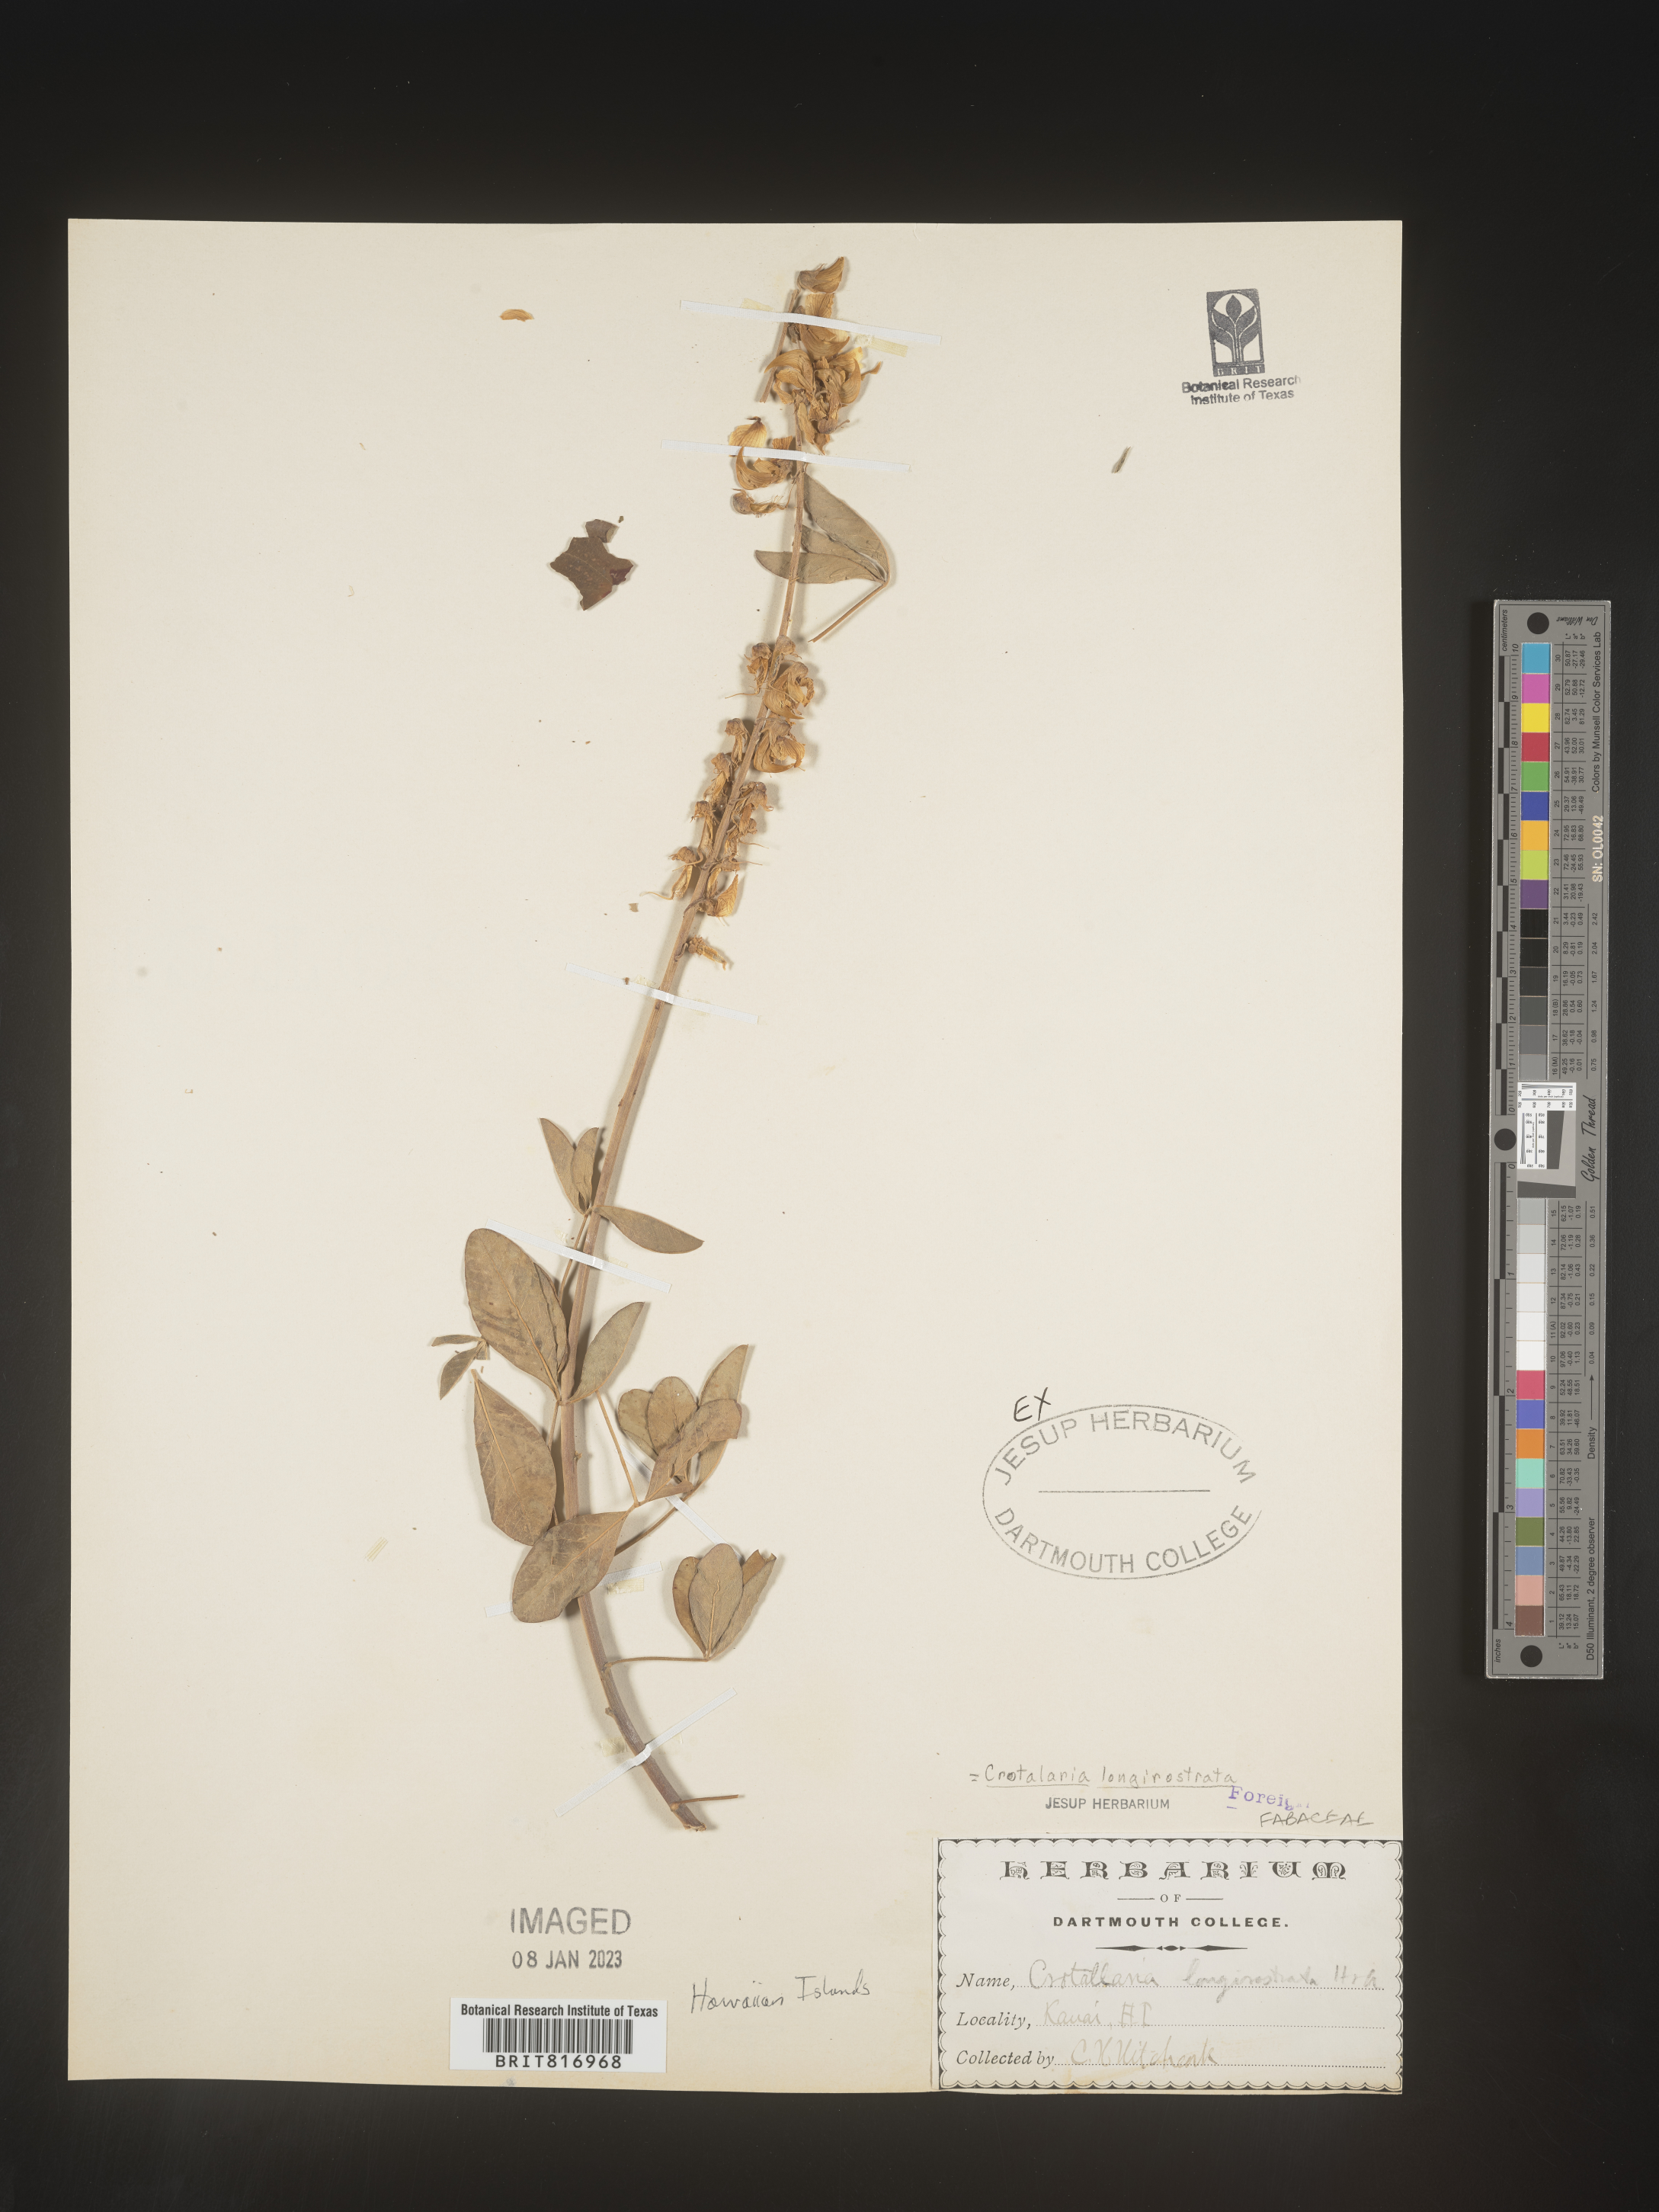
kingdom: Plantae
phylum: Tracheophyta
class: Magnoliopsida
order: Fabales
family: Fabaceae
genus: Crotalaria
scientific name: Crotalaria
